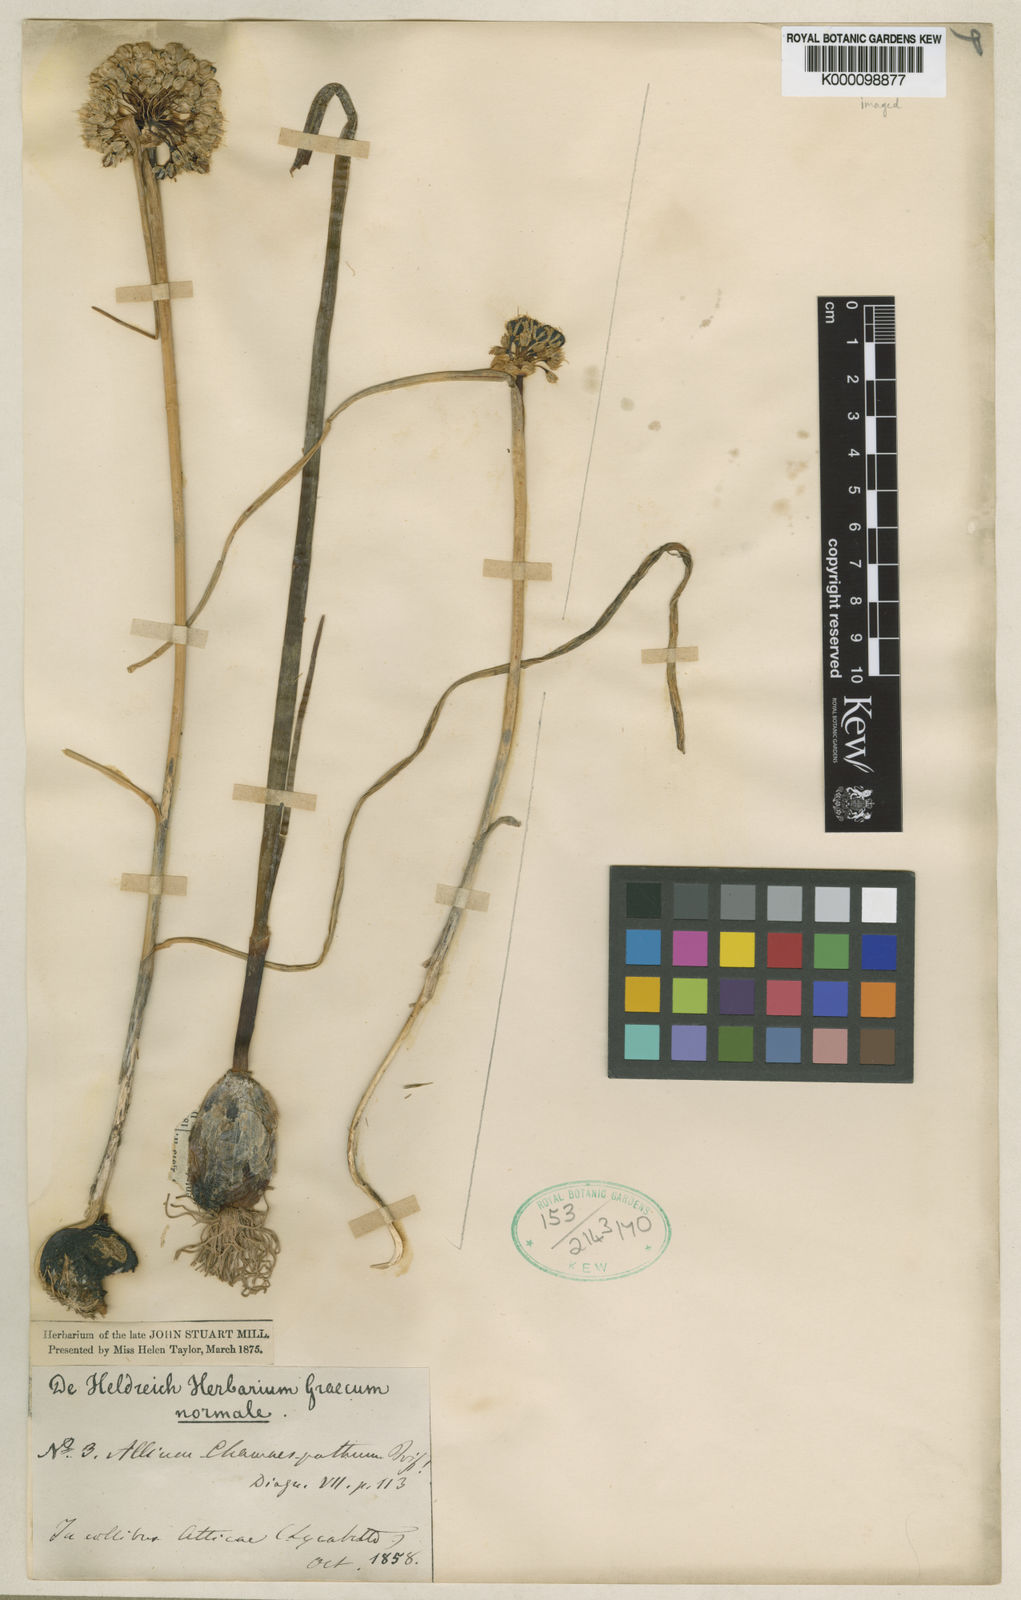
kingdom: Plantae
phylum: Tracheophyta
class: Liliopsida
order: Asparagales
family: Amaryllidaceae
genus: Allium
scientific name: Allium chamaespathum
